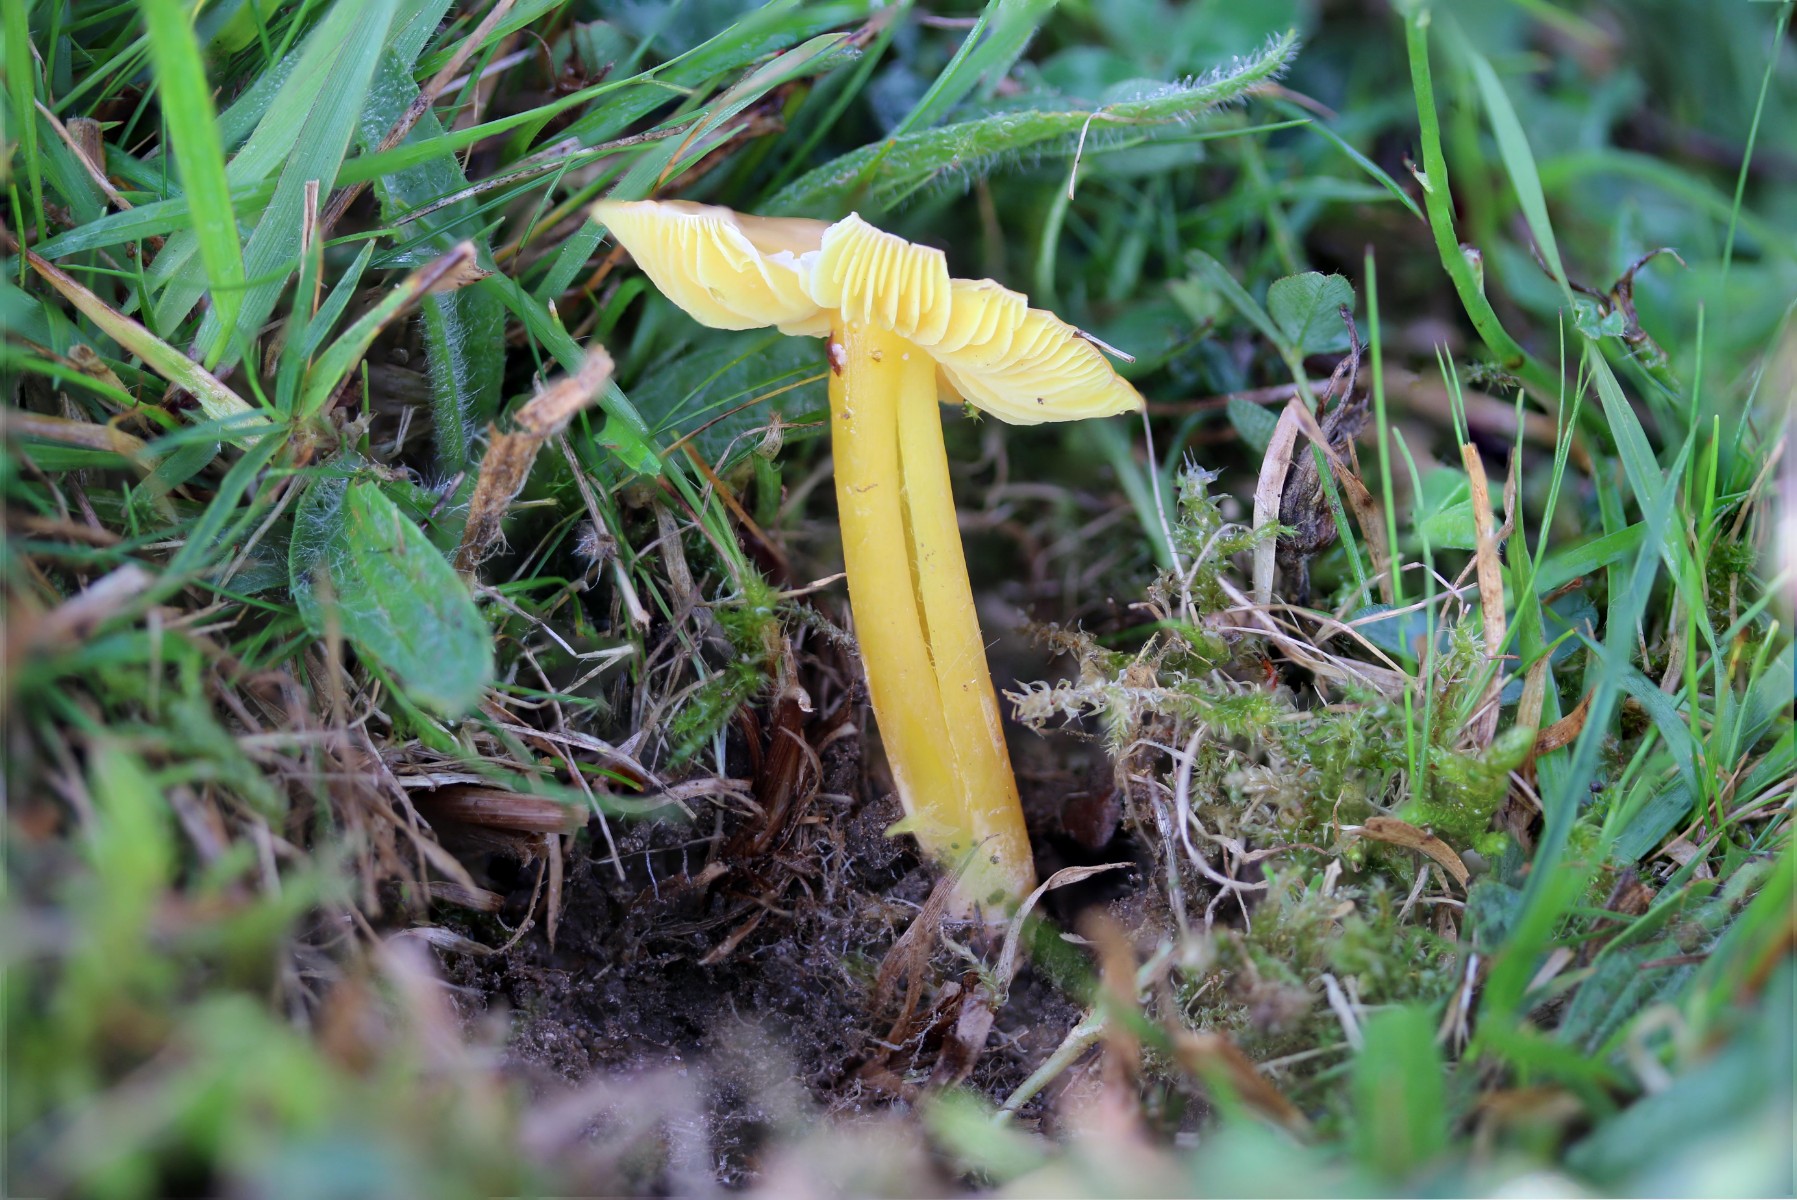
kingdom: Fungi
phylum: Basidiomycota
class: Agaricomycetes
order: Agaricales
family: Hygrophoraceae
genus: Hygrocybe
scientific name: Hygrocybe chlorophana
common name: gul vokshat
